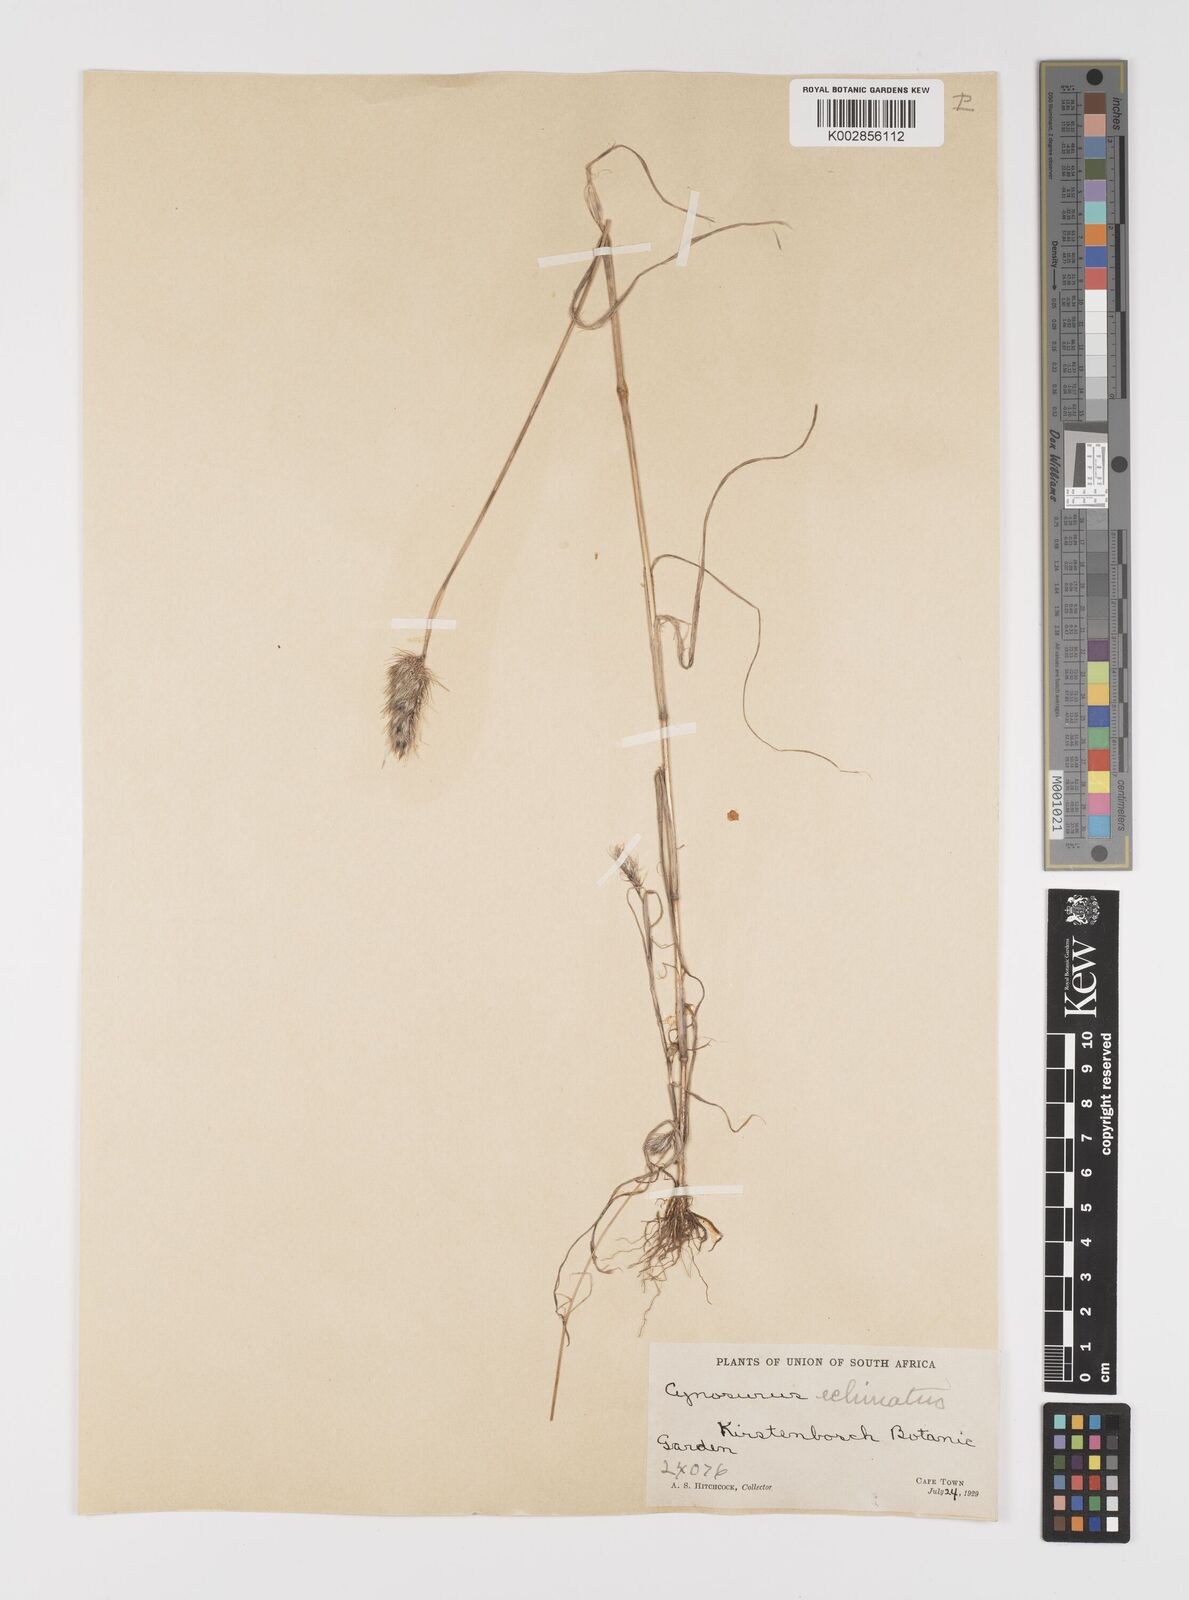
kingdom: Plantae
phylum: Tracheophyta
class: Liliopsida
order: Poales
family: Poaceae
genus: Cynosurus
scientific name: Cynosurus echinatus
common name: Rough dog's-tail
